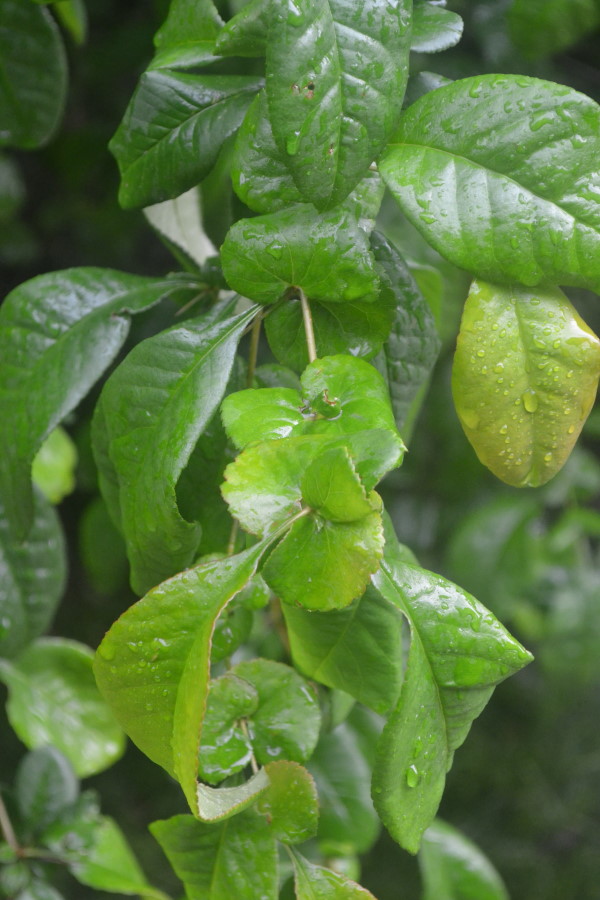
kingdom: Plantae
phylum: Tracheophyta
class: Magnoliopsida
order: Rosales
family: Rosaceae
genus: Chaenomeles
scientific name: Chaenomeles vilmoriniana
